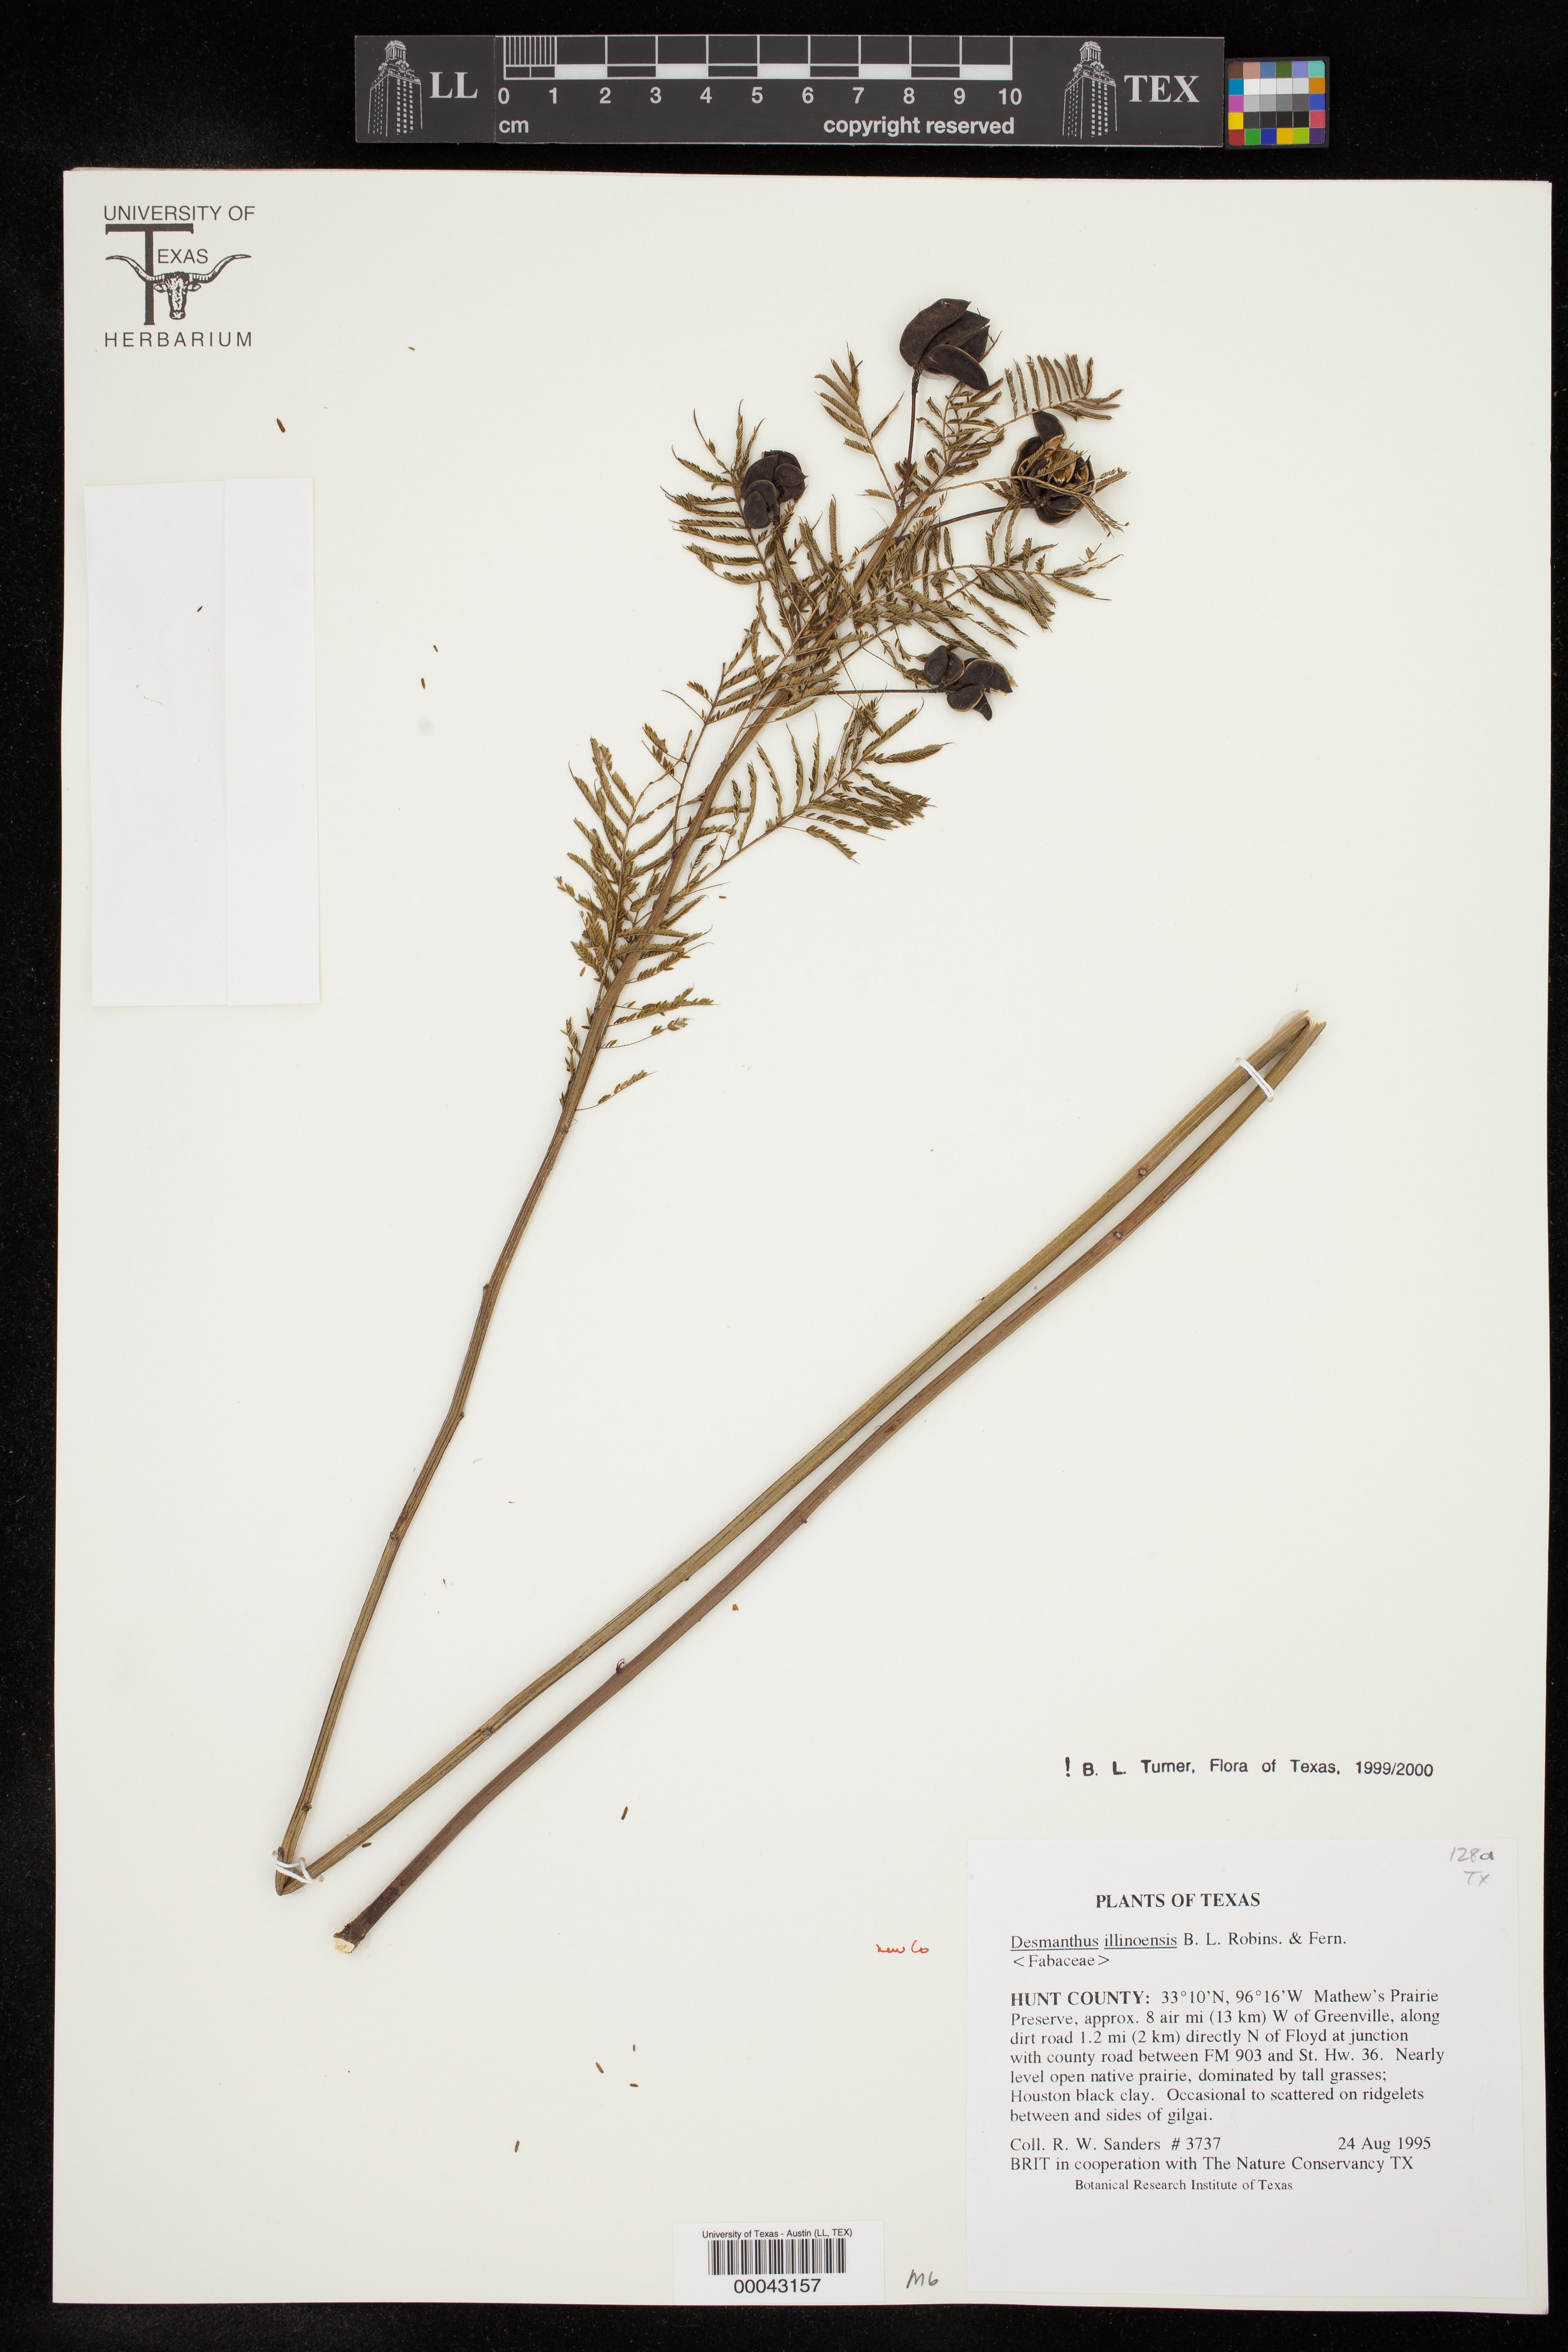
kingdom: Plantae
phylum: Tracheophyta
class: Magnoliopsida
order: Fabales
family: Fabaceae
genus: Desmanthus
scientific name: Desmanthus illinoensis
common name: Illinois bundle-flower
